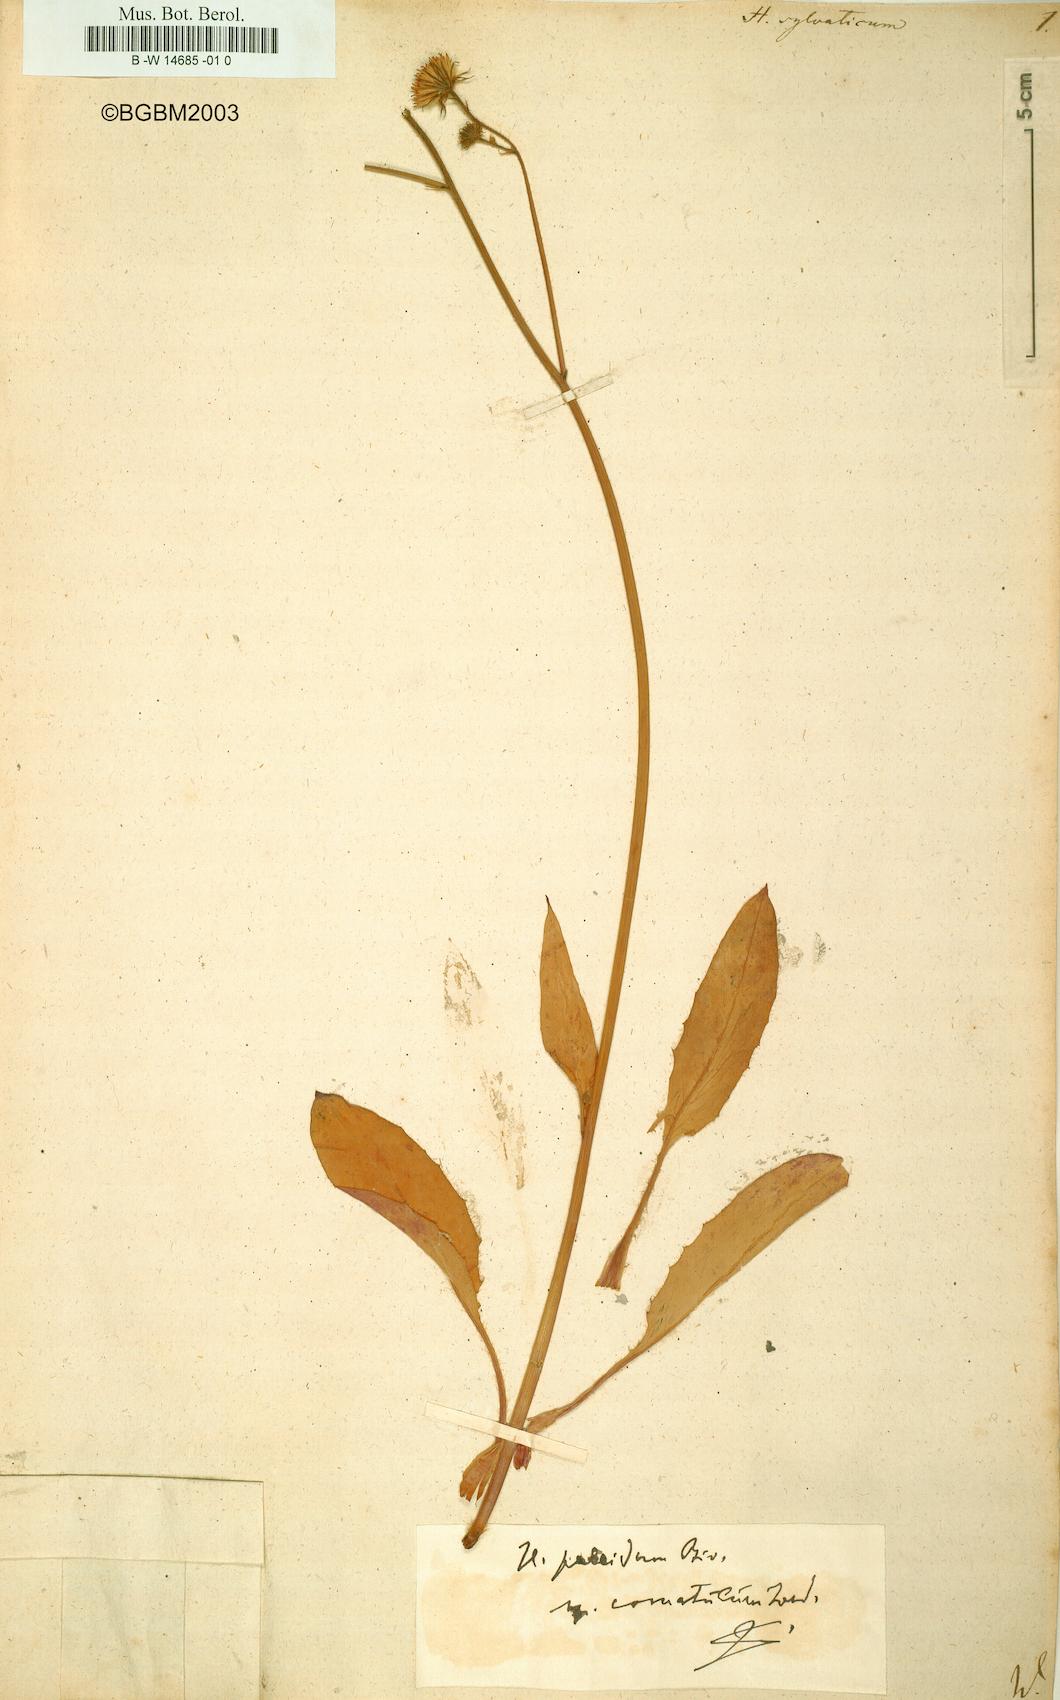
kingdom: Plantae
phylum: Tracheophyta
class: Magnoliopsida
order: Asterales
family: Asteraceae
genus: Hieracium
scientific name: Hieracium sylvaticum
